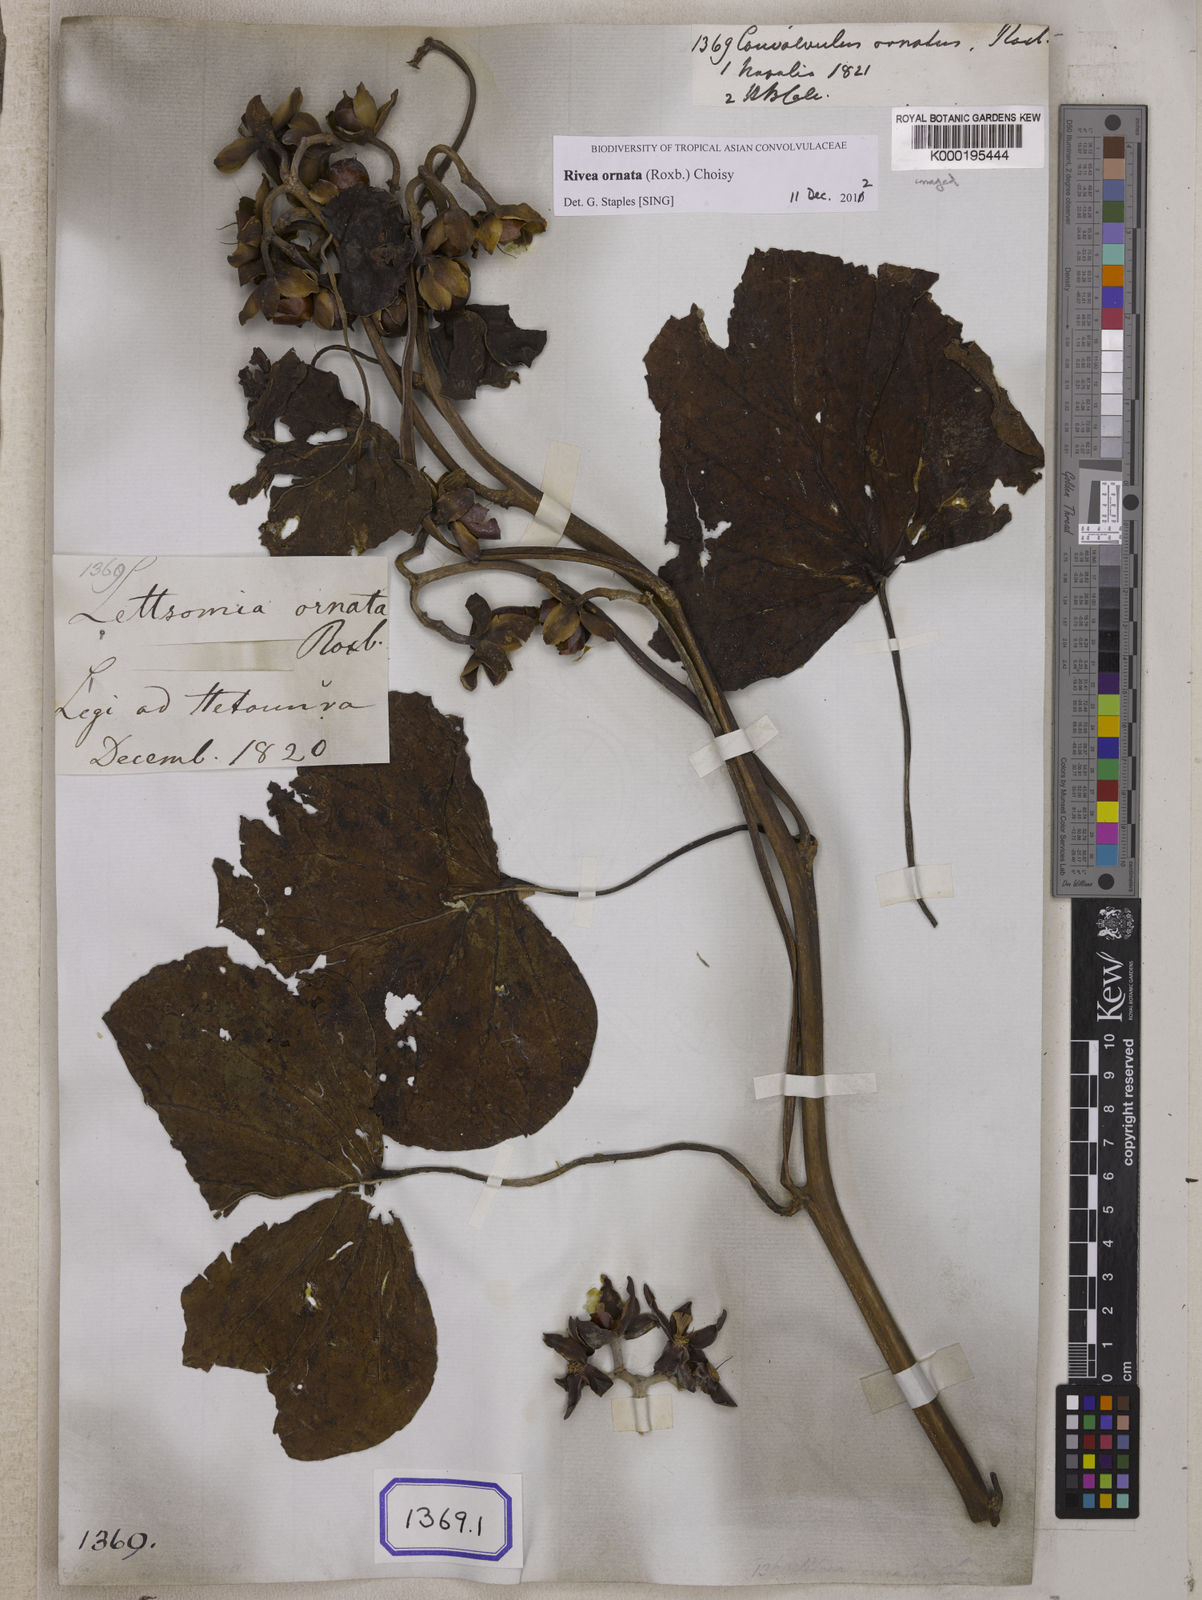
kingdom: Plantae
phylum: Tracheophyta
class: Magnoliopsida
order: Solanales
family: Convolvulaceae
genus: Convolvulus
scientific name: Convolvulus
